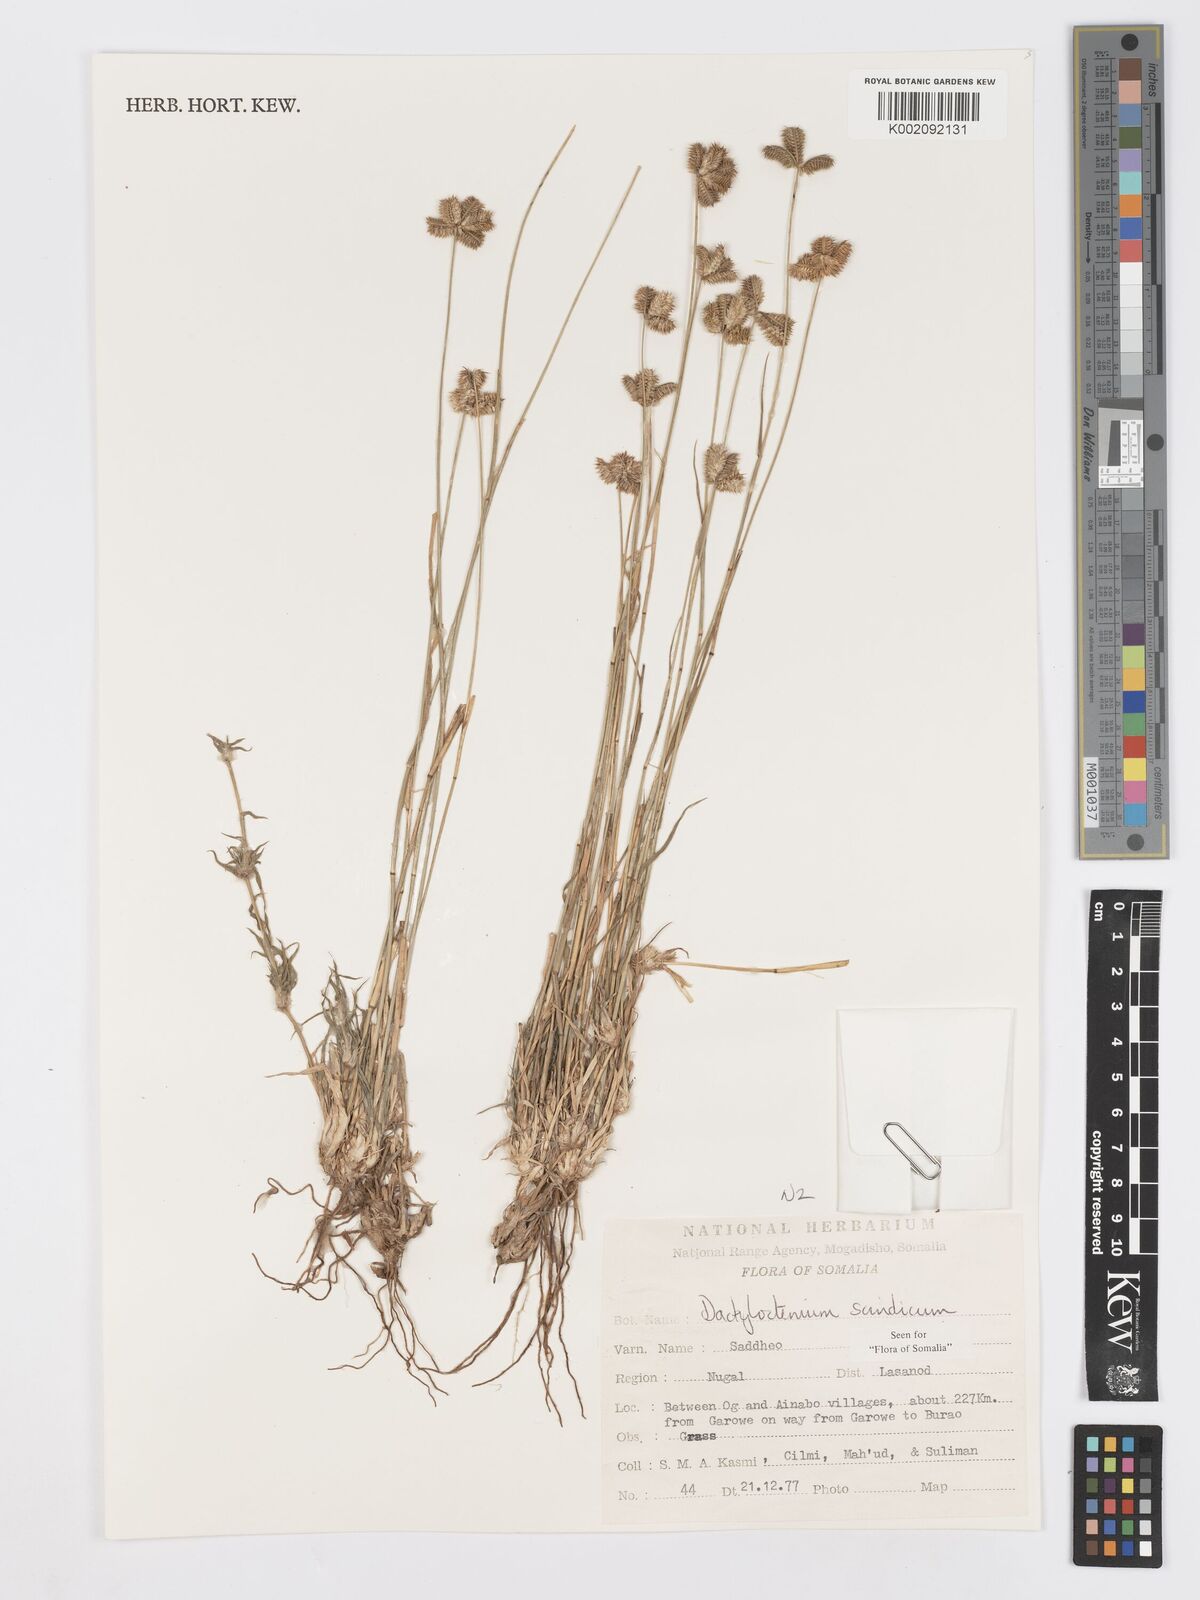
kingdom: Plantae
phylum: Tracheophyta
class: Liliopsida
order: Poales
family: Poaceae
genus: Dactyloctenium
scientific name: Dactyloctenium scindicum
